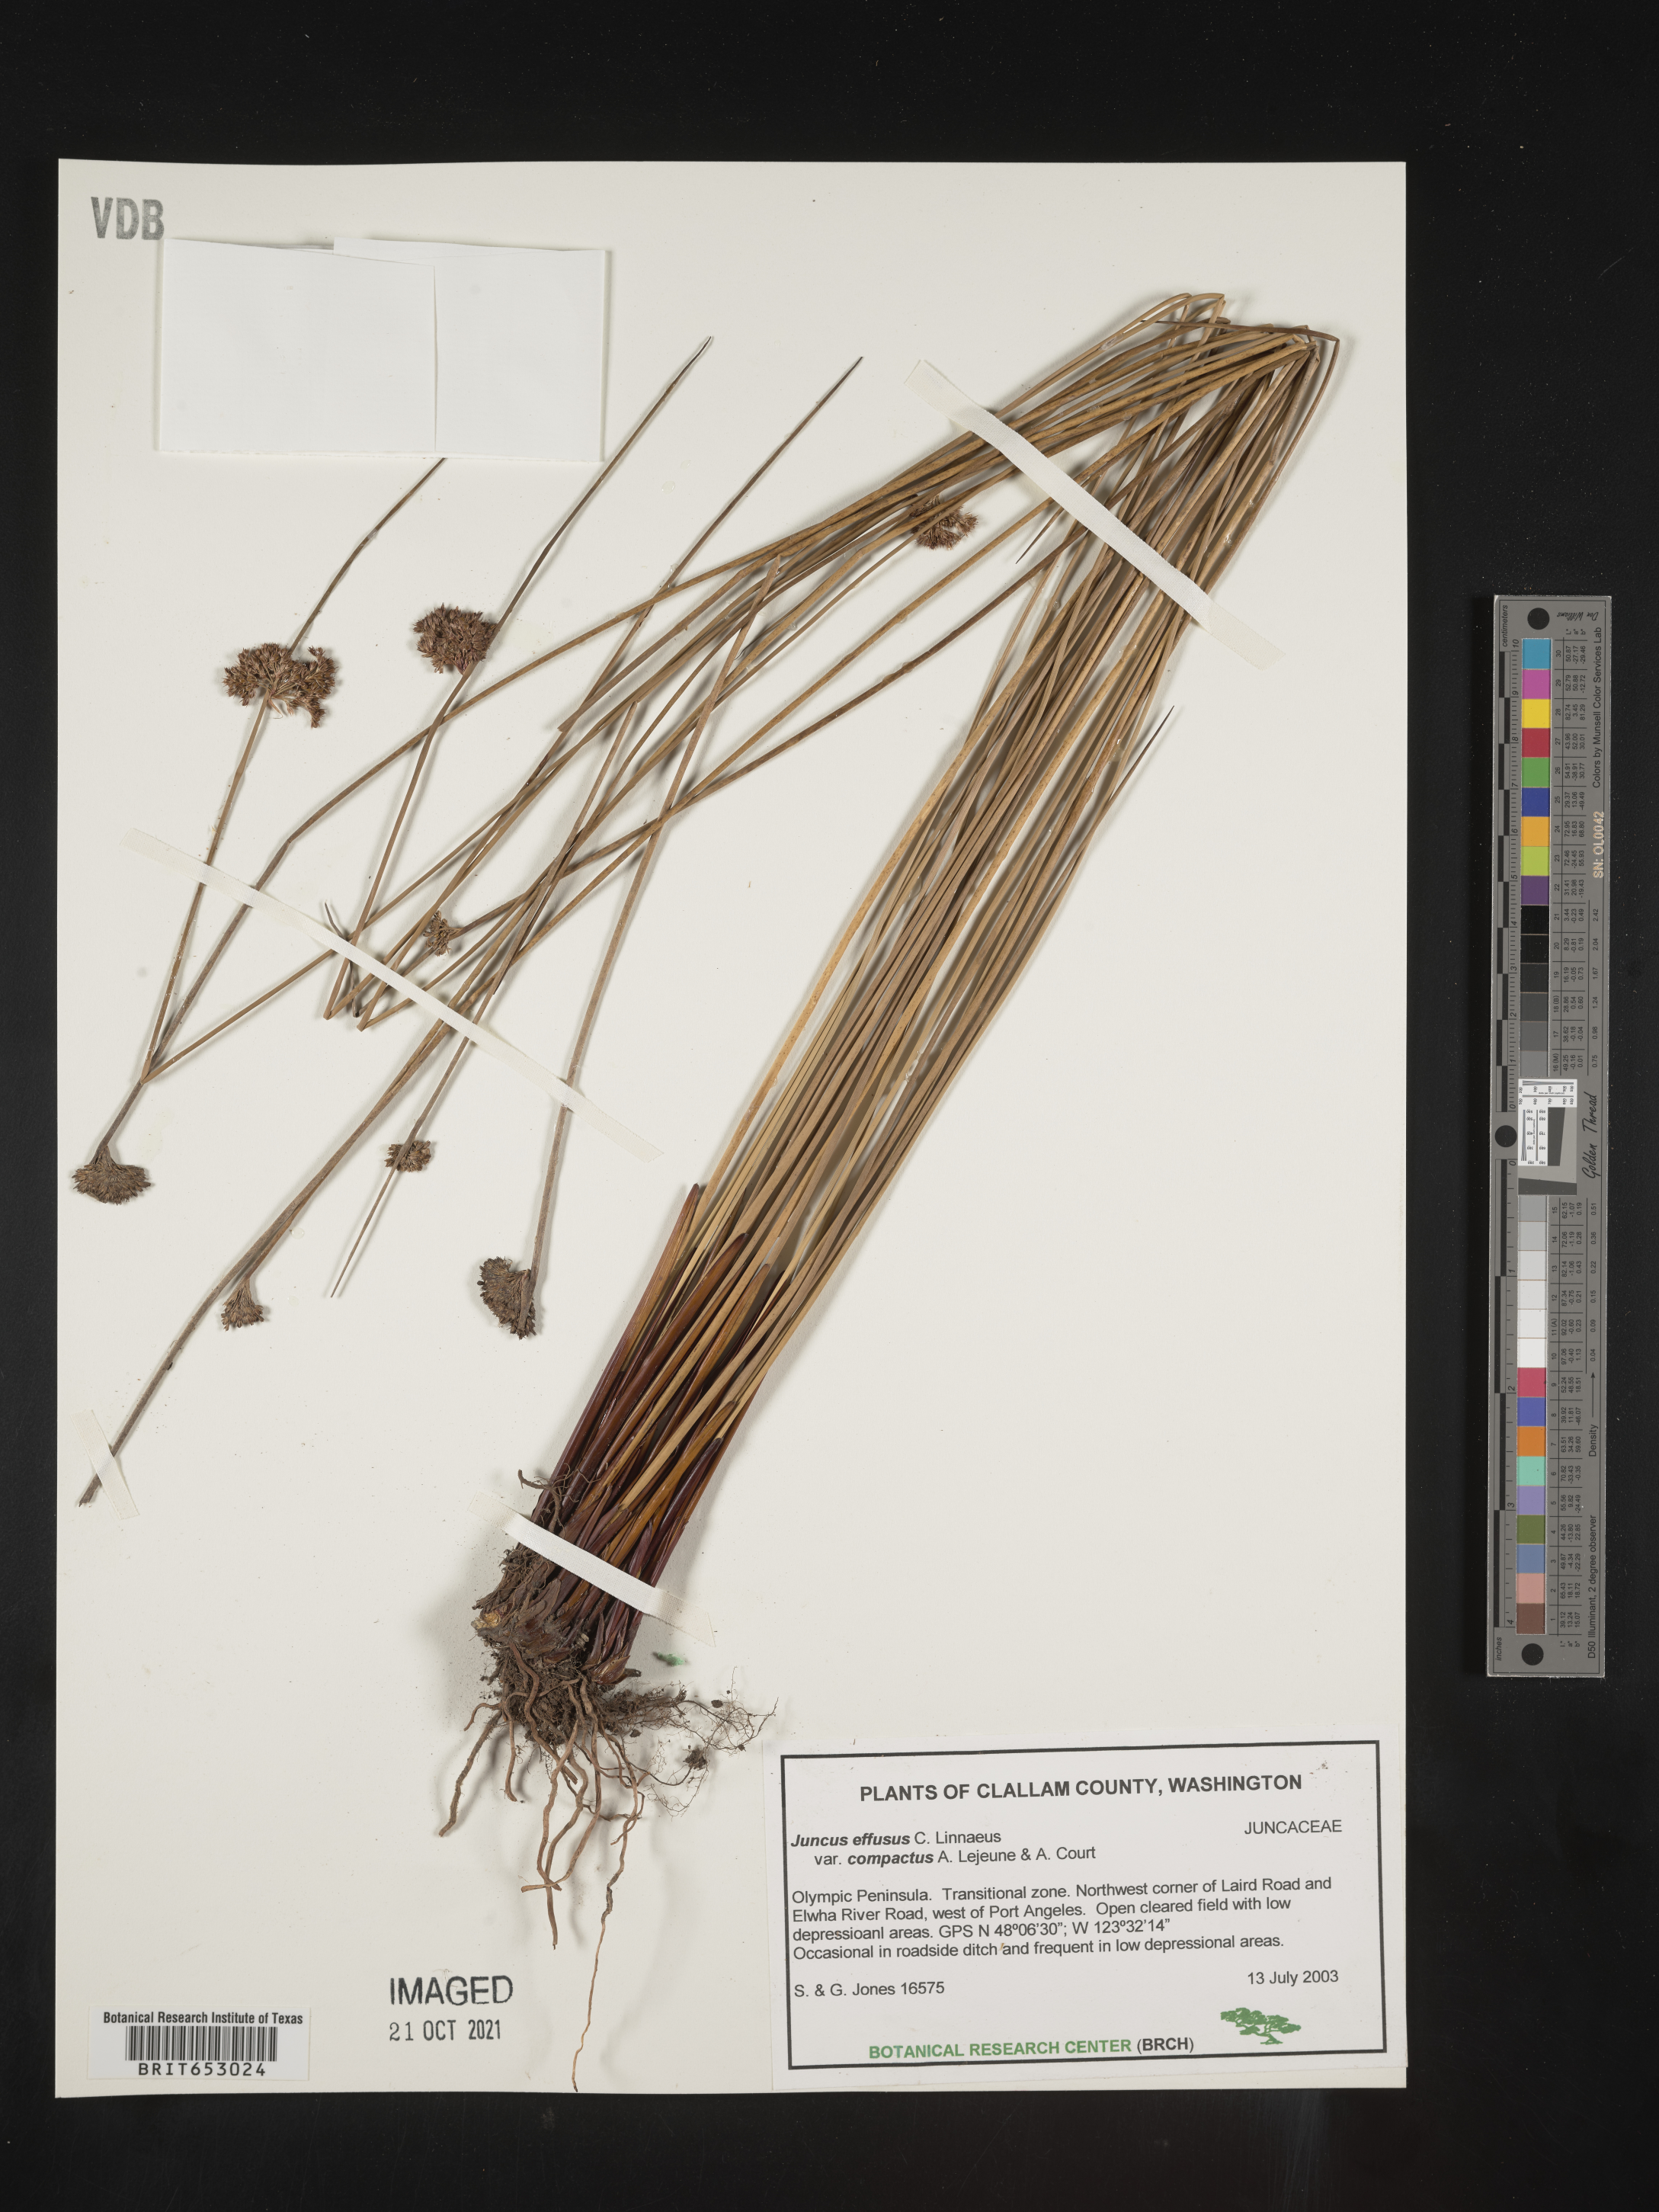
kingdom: Plantae
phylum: Tracheophyta
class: Liliopsida
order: Poales
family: Juncaceae
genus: Juncus
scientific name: Juncus effusus
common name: Soft rush
